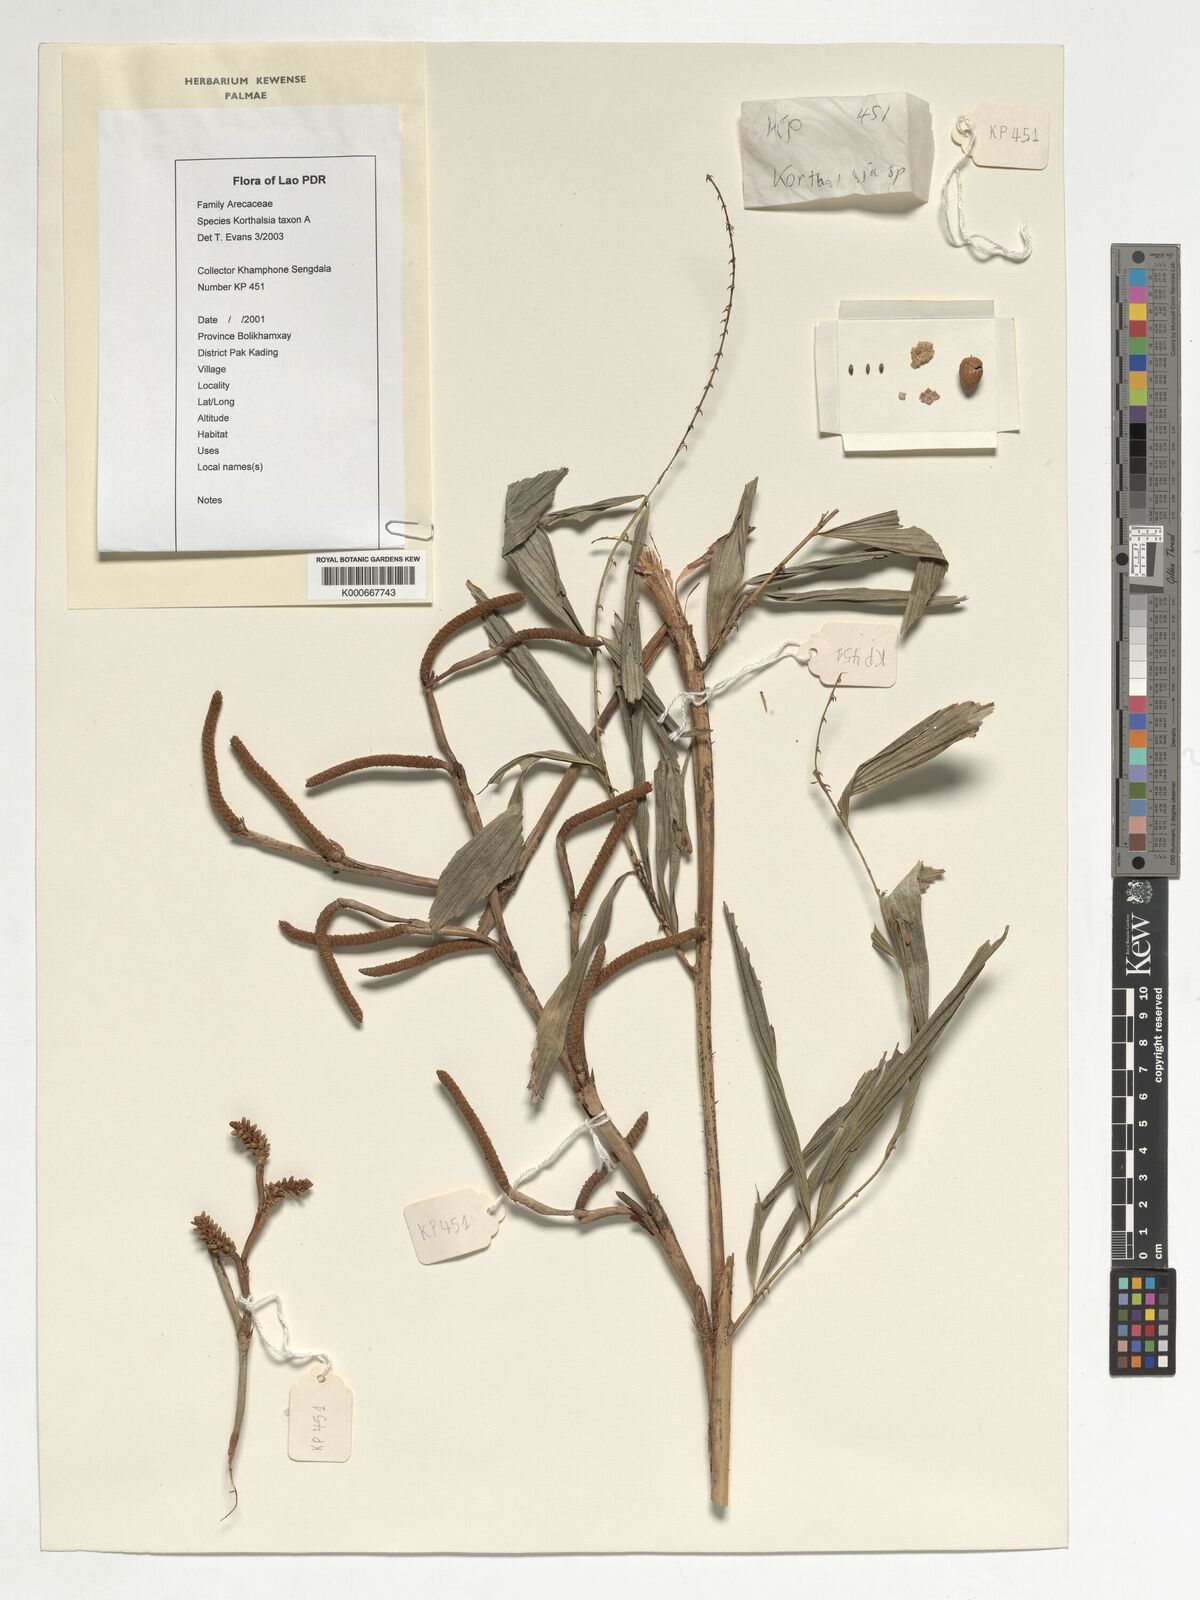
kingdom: Plantae
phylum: Tracheophyta
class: Liliopsida
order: Arecales
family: Arecaceae
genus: Korthalsia
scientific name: Korthalsia
